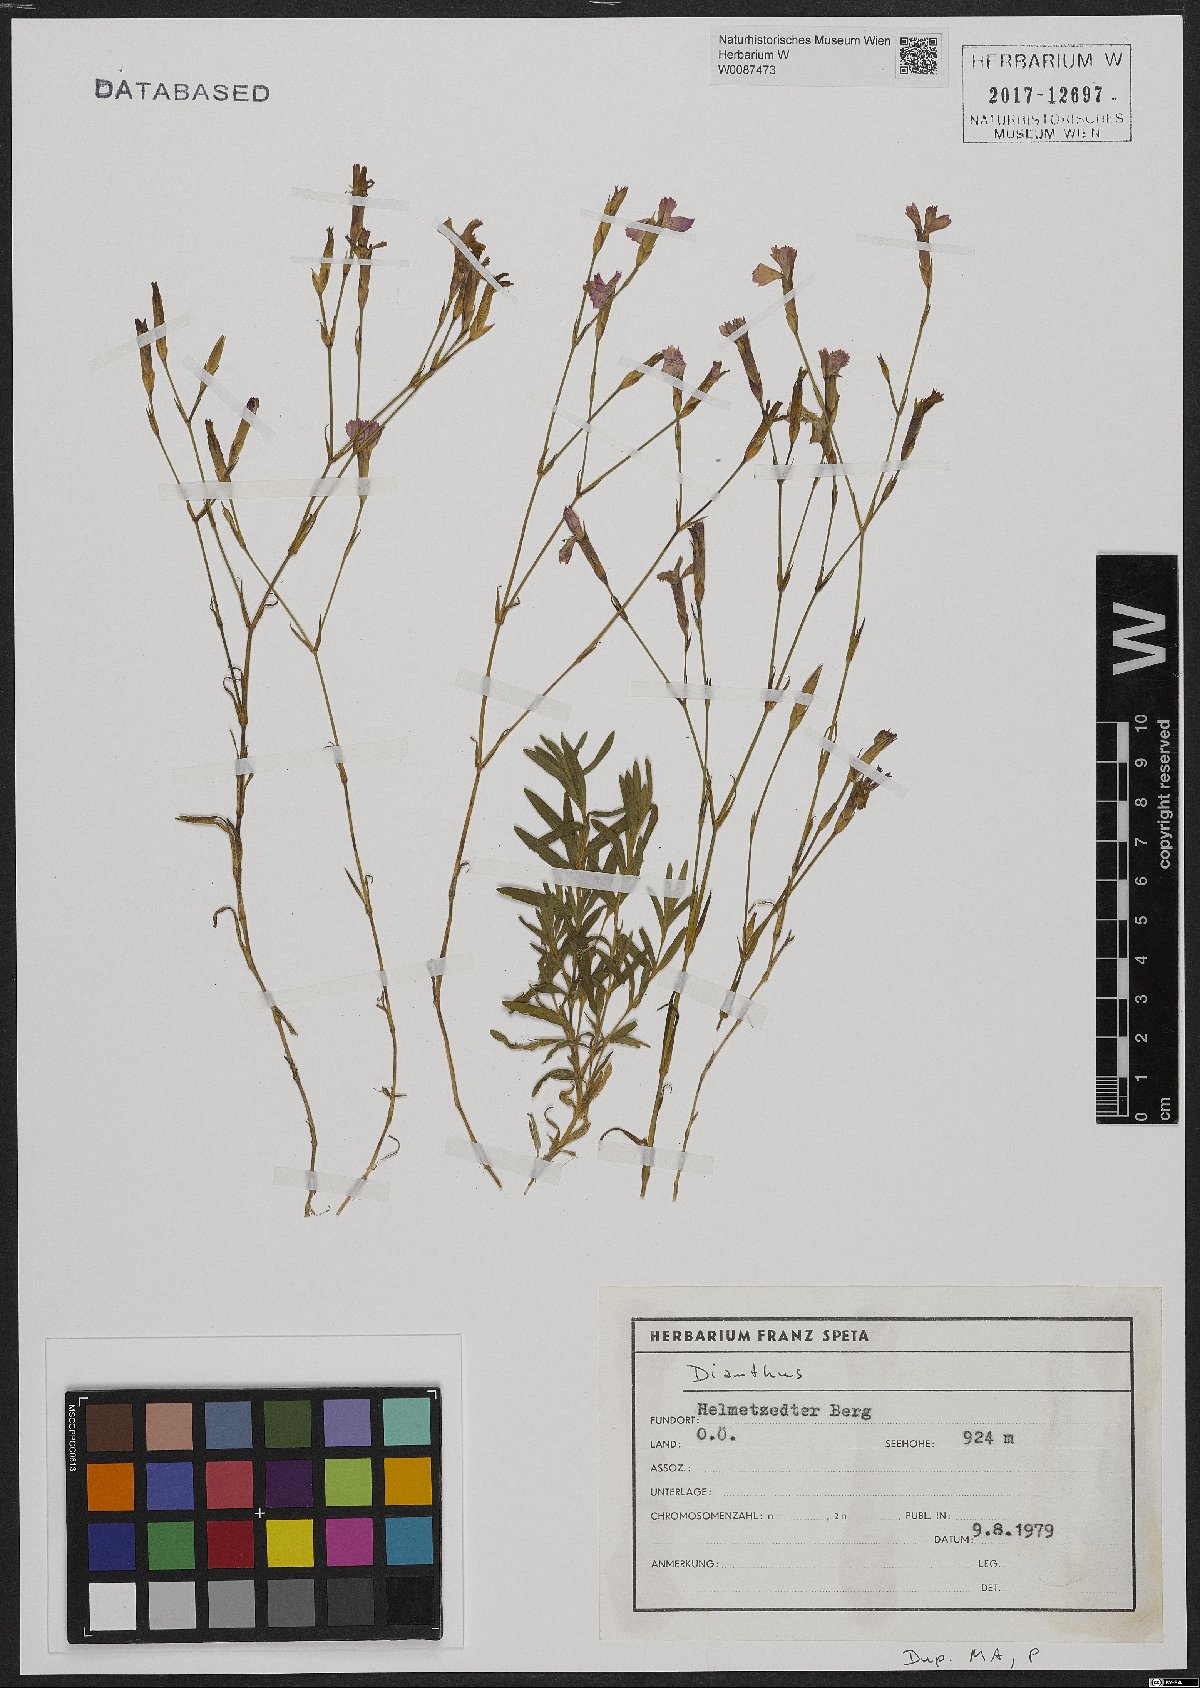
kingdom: Plantae
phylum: Tracheophyta
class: Magnoliopsida
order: Caryophyllales
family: Caryophyllaceae
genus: Dianthus
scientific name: Dianthus deltoides
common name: Maiden pink
